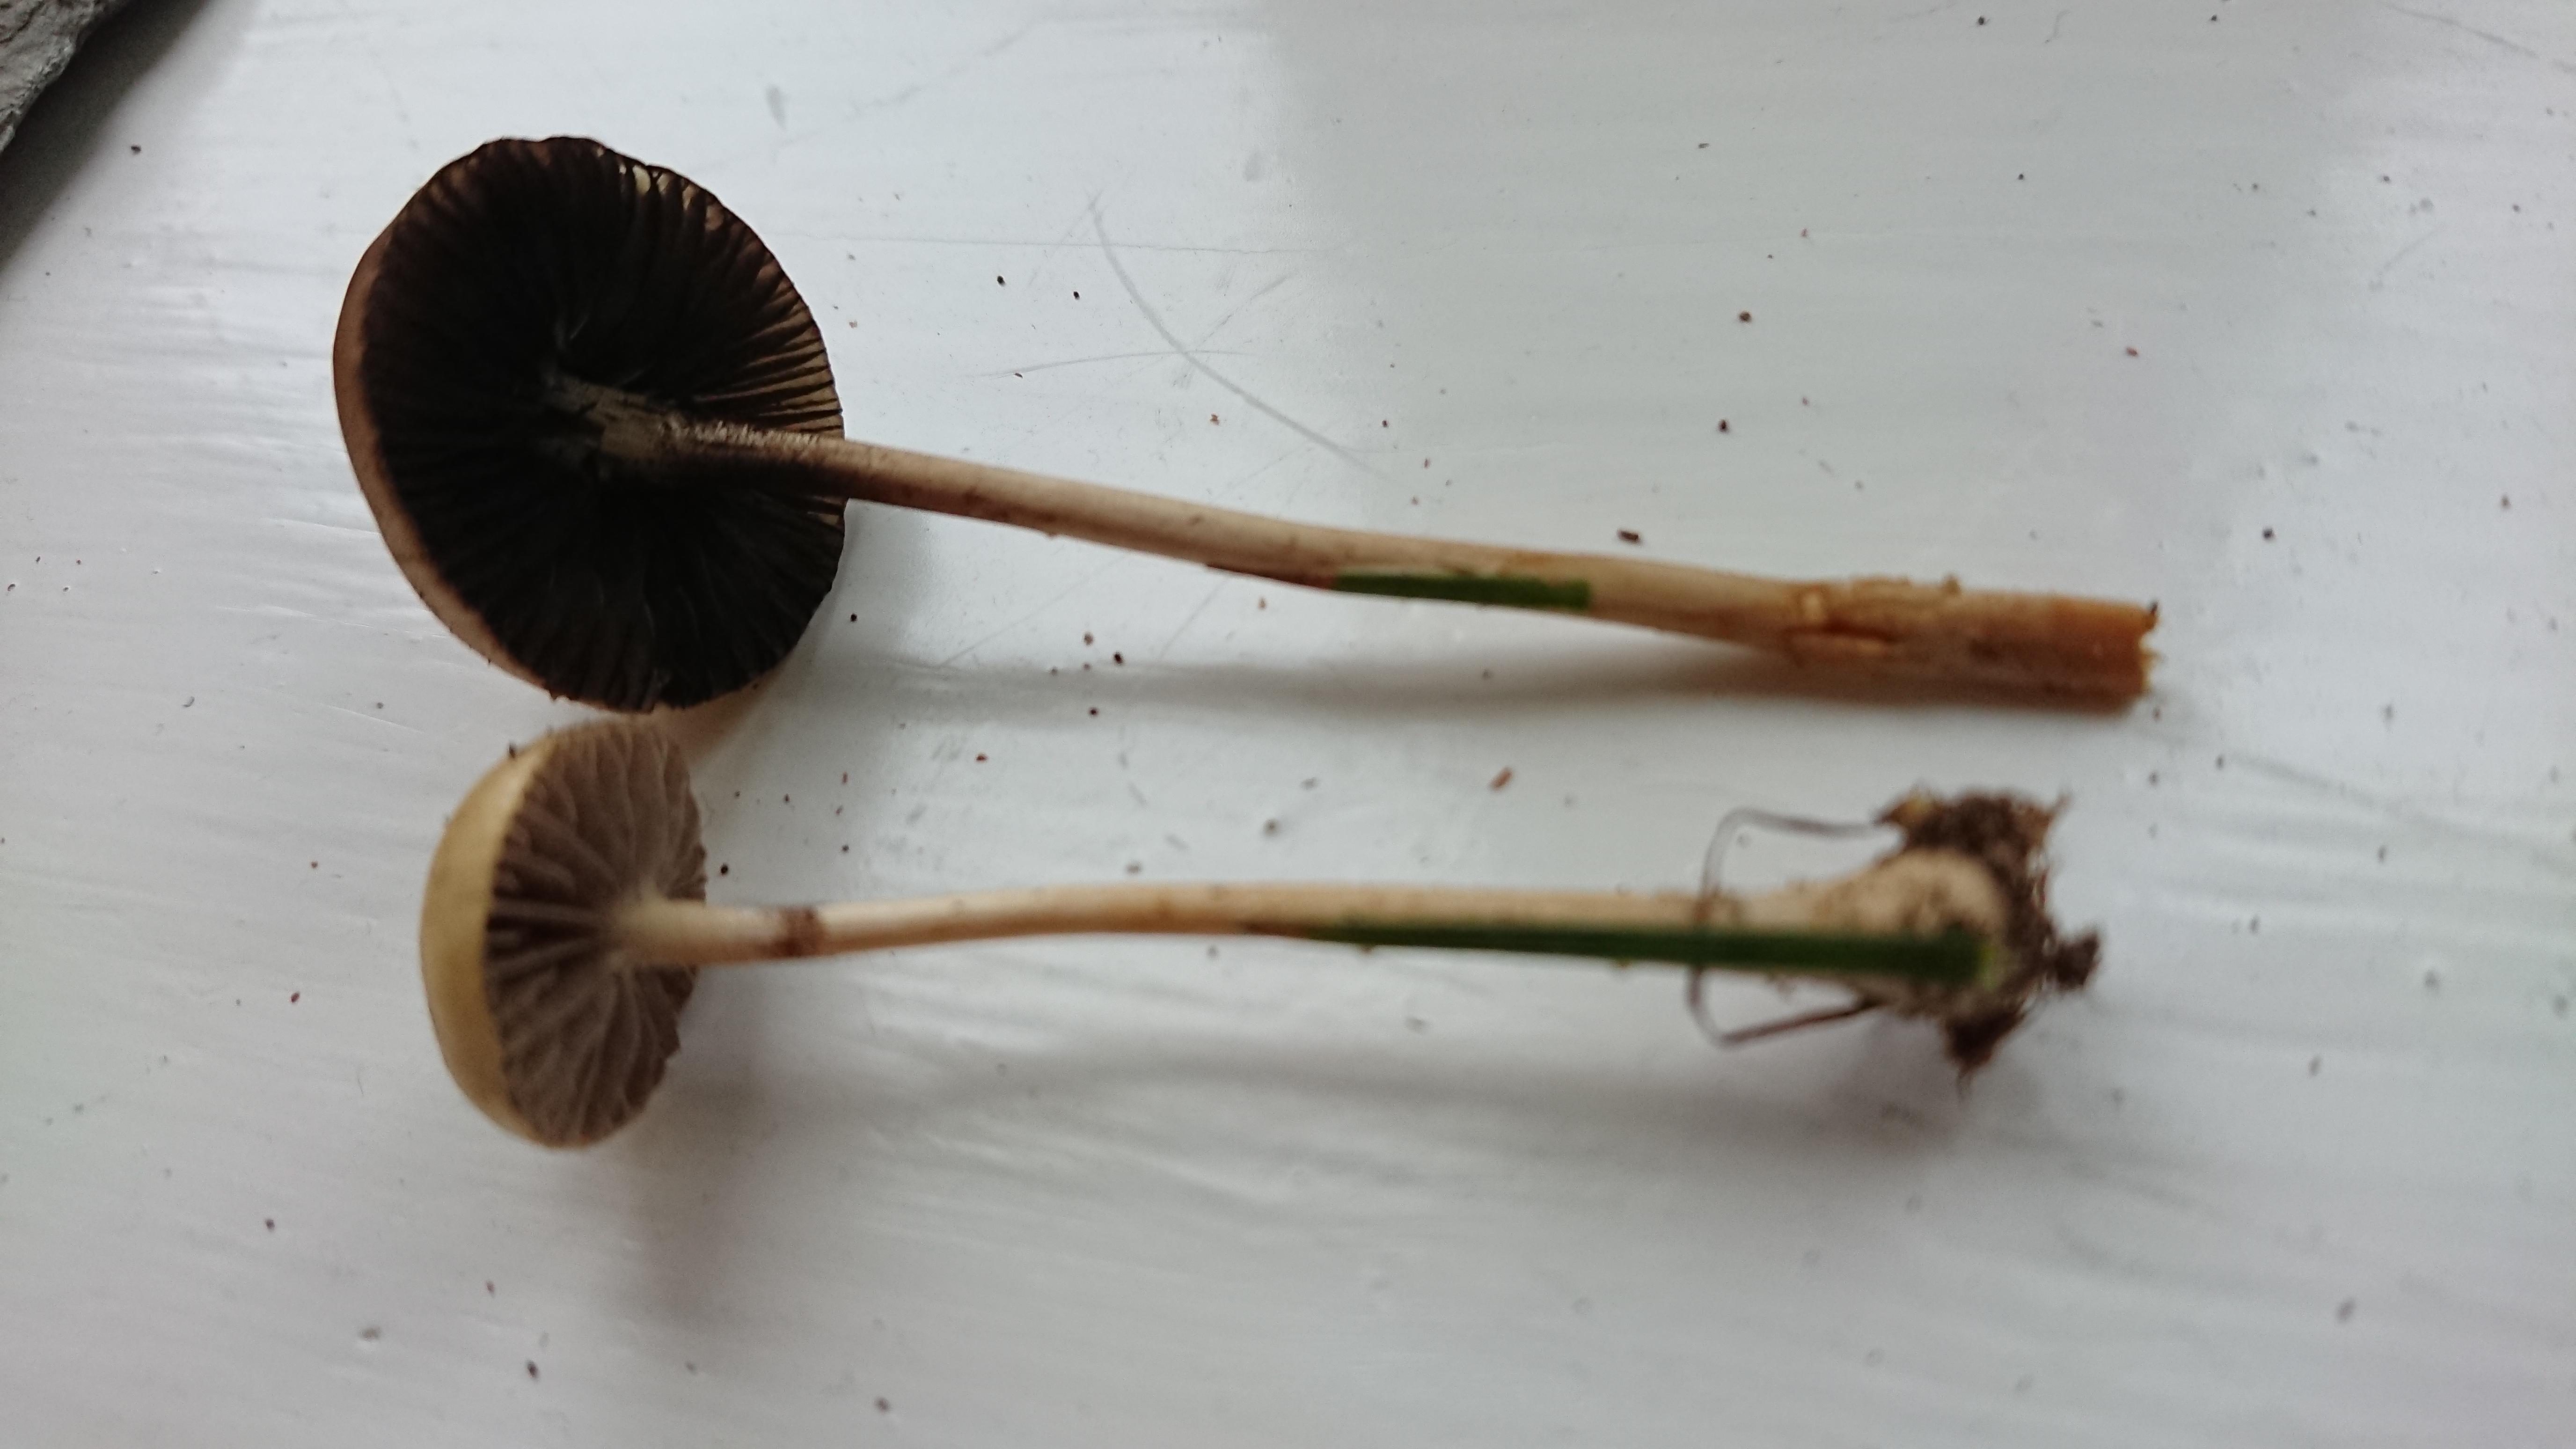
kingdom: Fungi
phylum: Basidiomycota
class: Agaricomycetes
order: Agaricales
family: Strophariaceae
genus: Protostropharia
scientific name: Protostropharia
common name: bredblad
